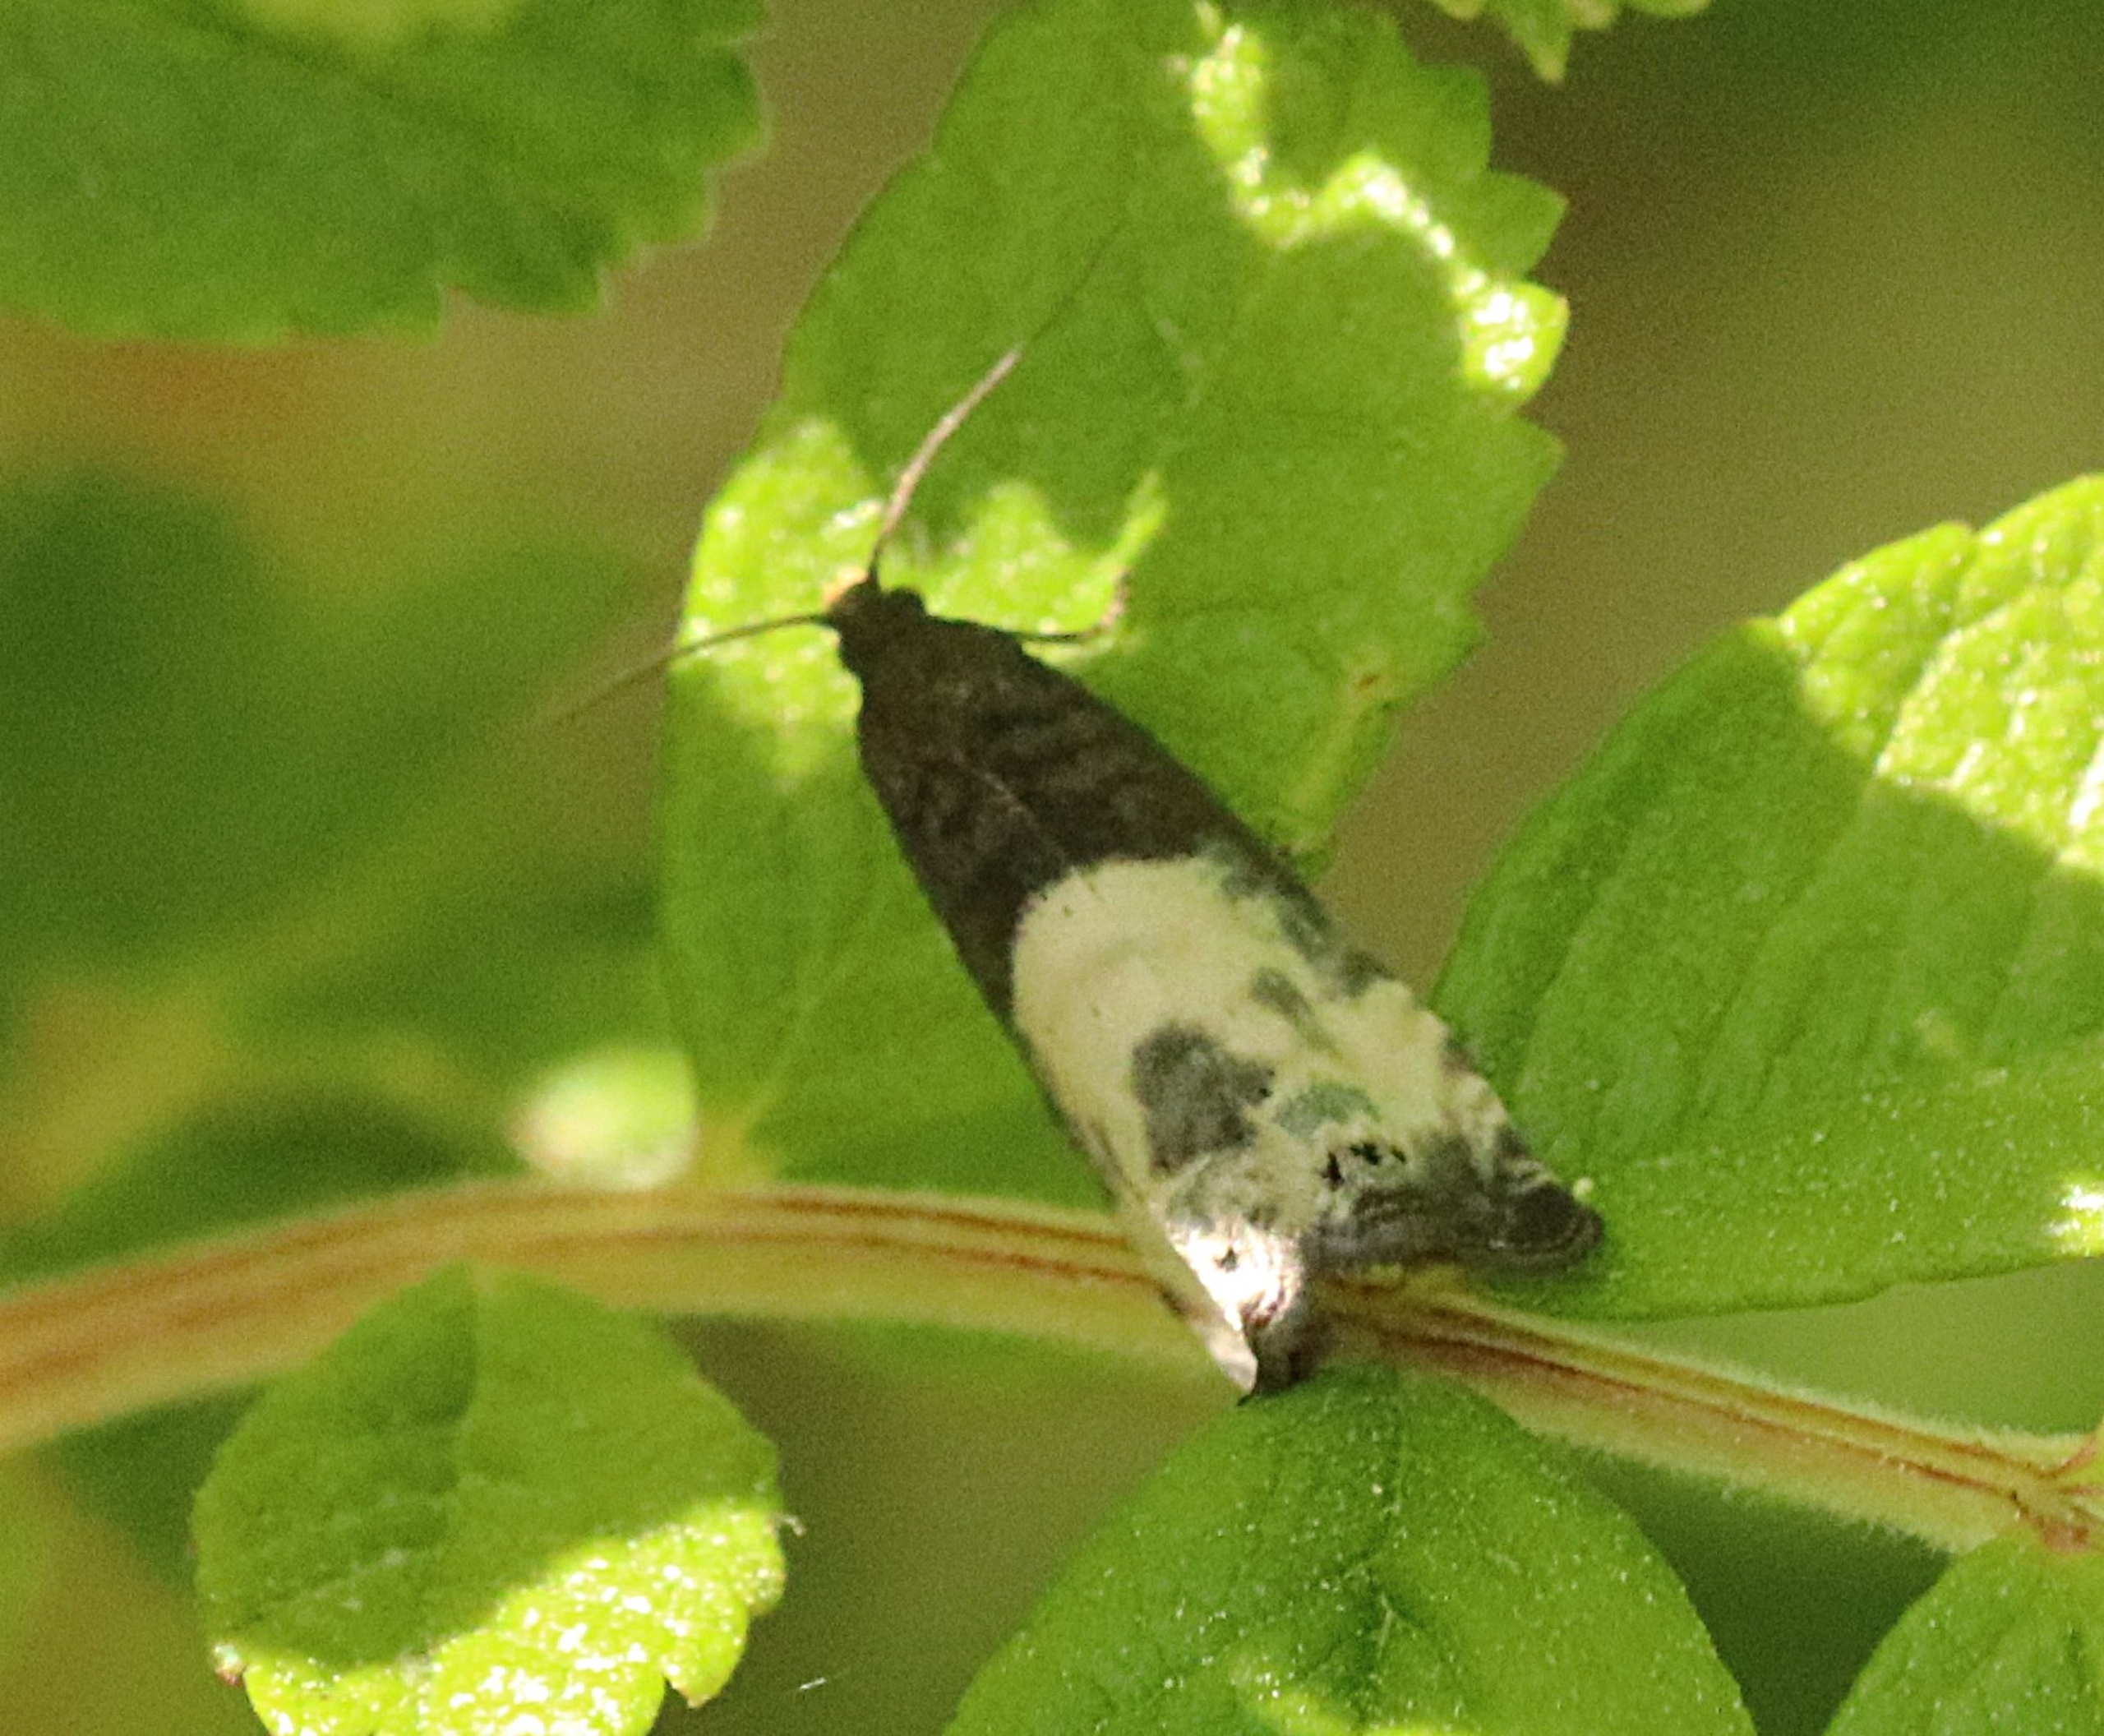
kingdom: Animalia
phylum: Arthropoda
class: Insecta
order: Lepidoptera
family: Tortricidae
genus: Notocelia
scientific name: Notocelia cynosbatella
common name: Stor rosenvikler
